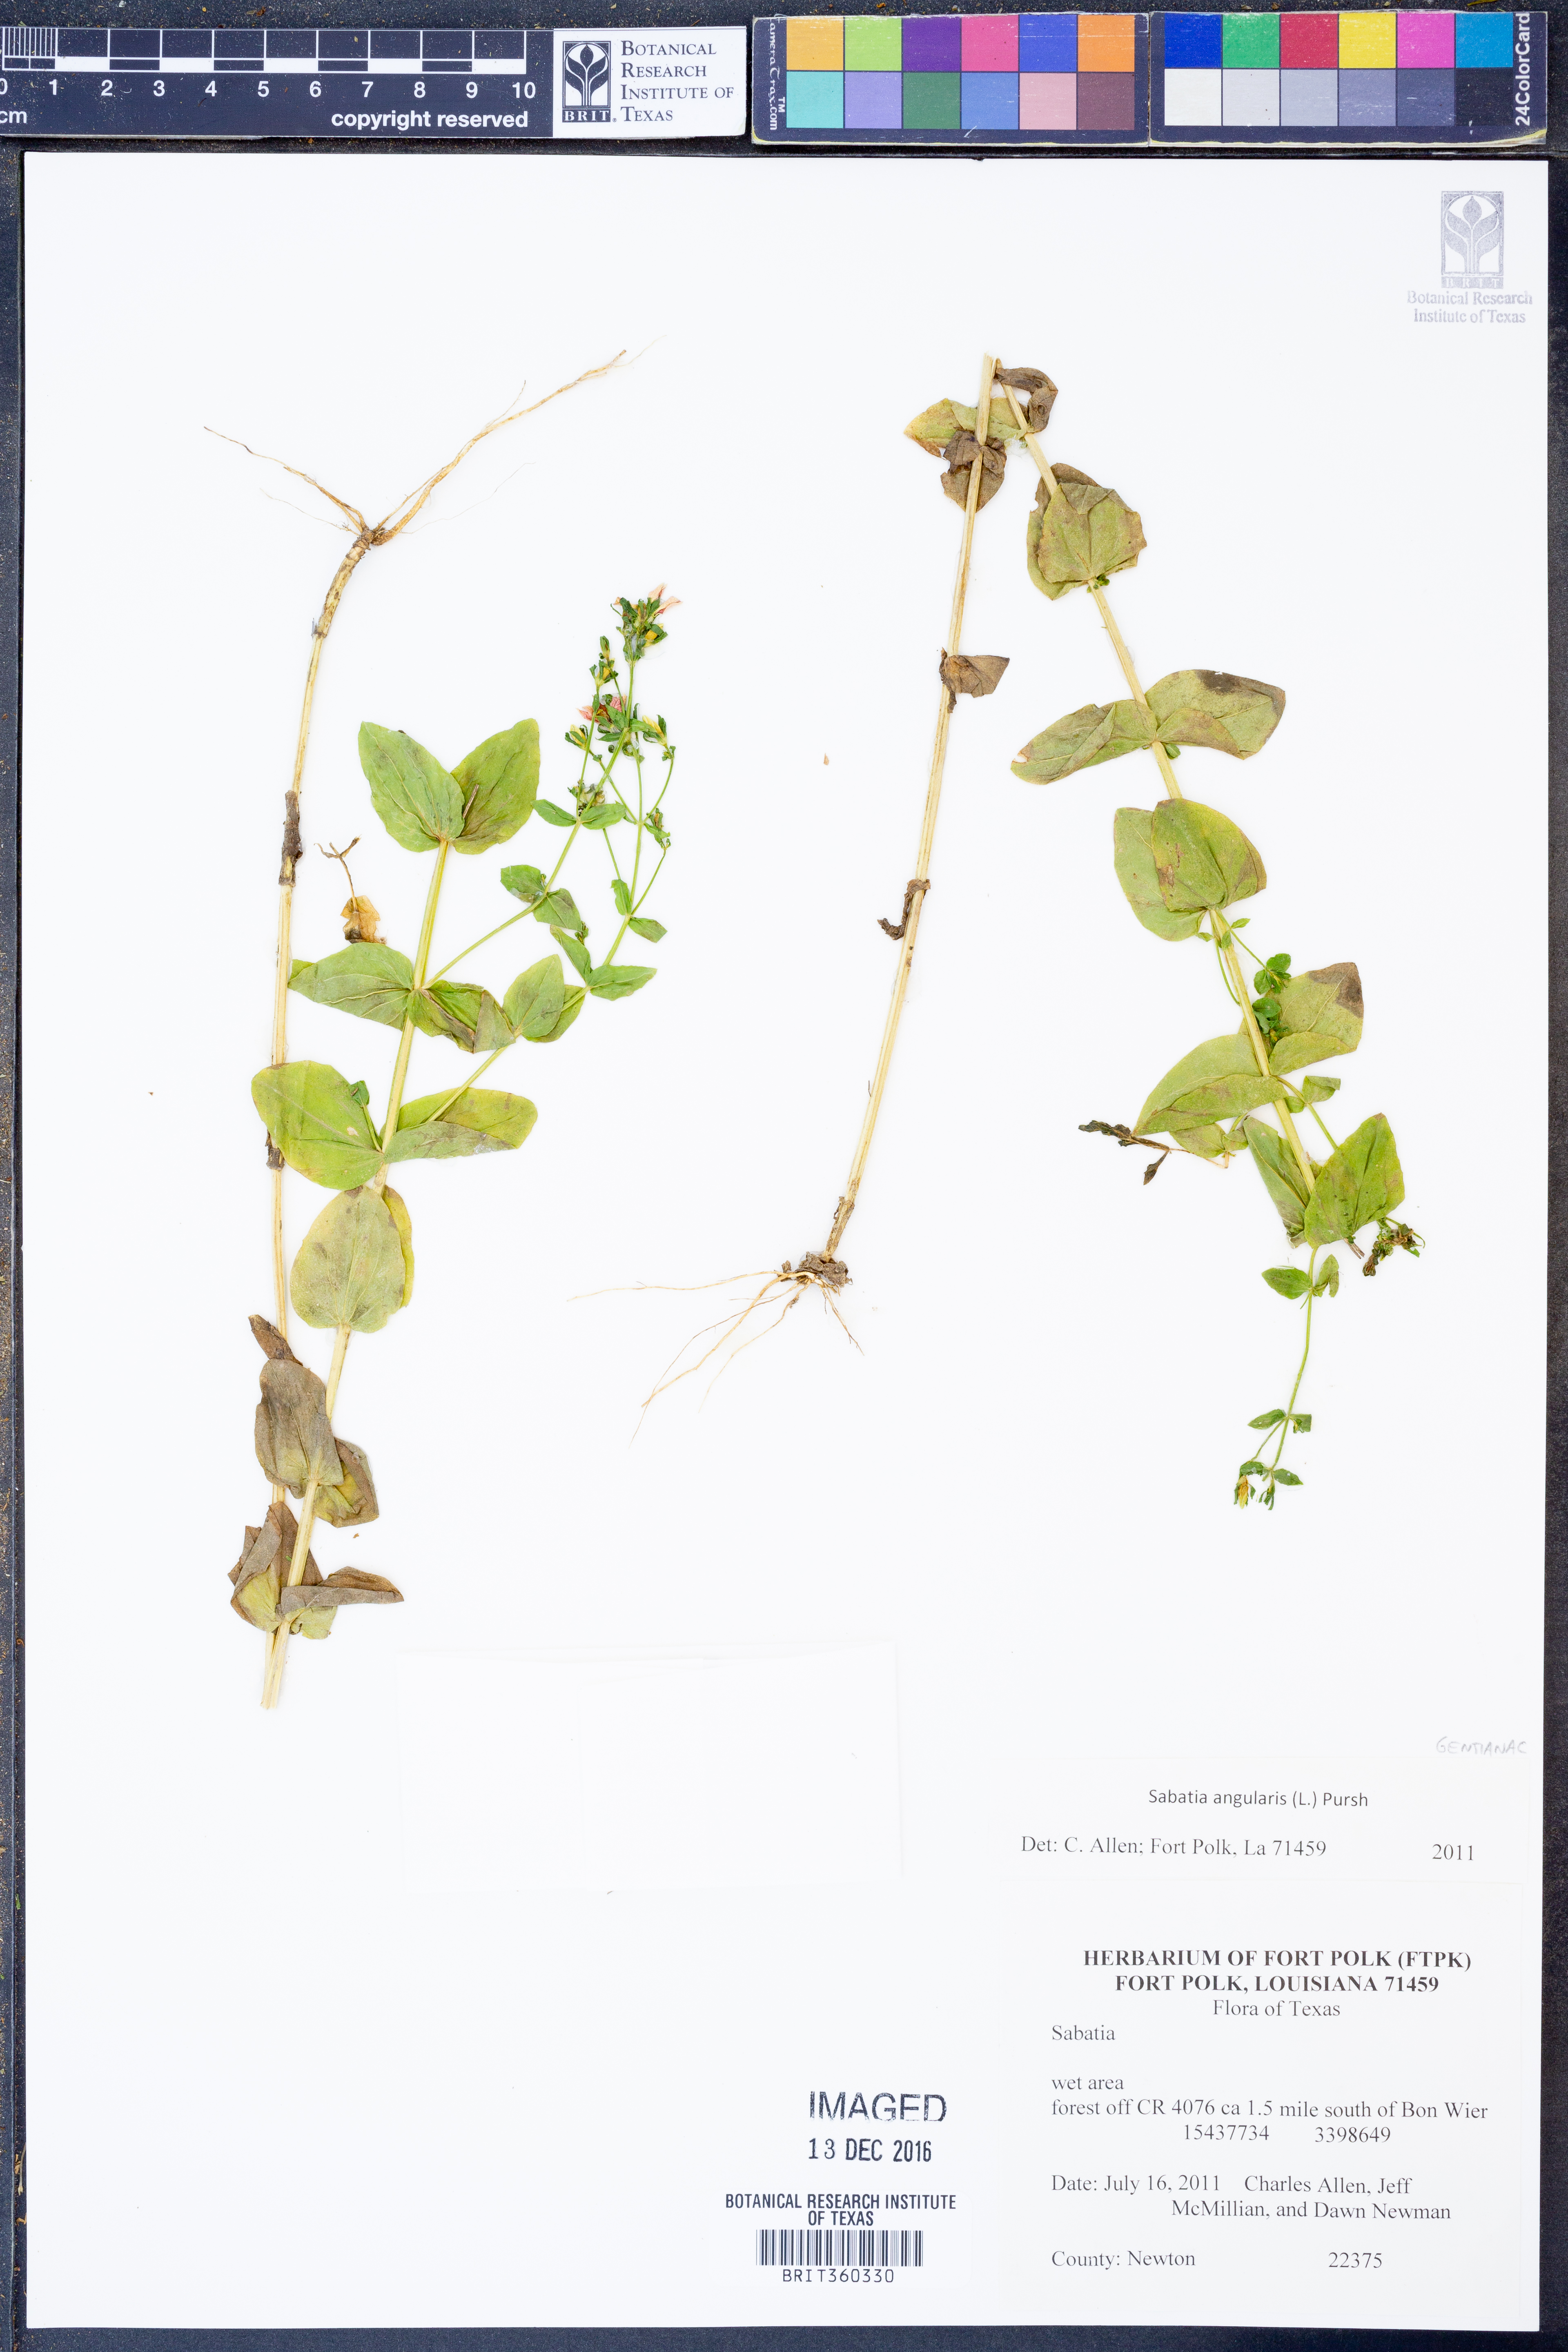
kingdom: Plantae
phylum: Tracheophyta
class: Magnoliopsida
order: Gentianales
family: Gentianaceae
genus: Sabatia
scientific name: Sabatia angularis
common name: Rose-pink
